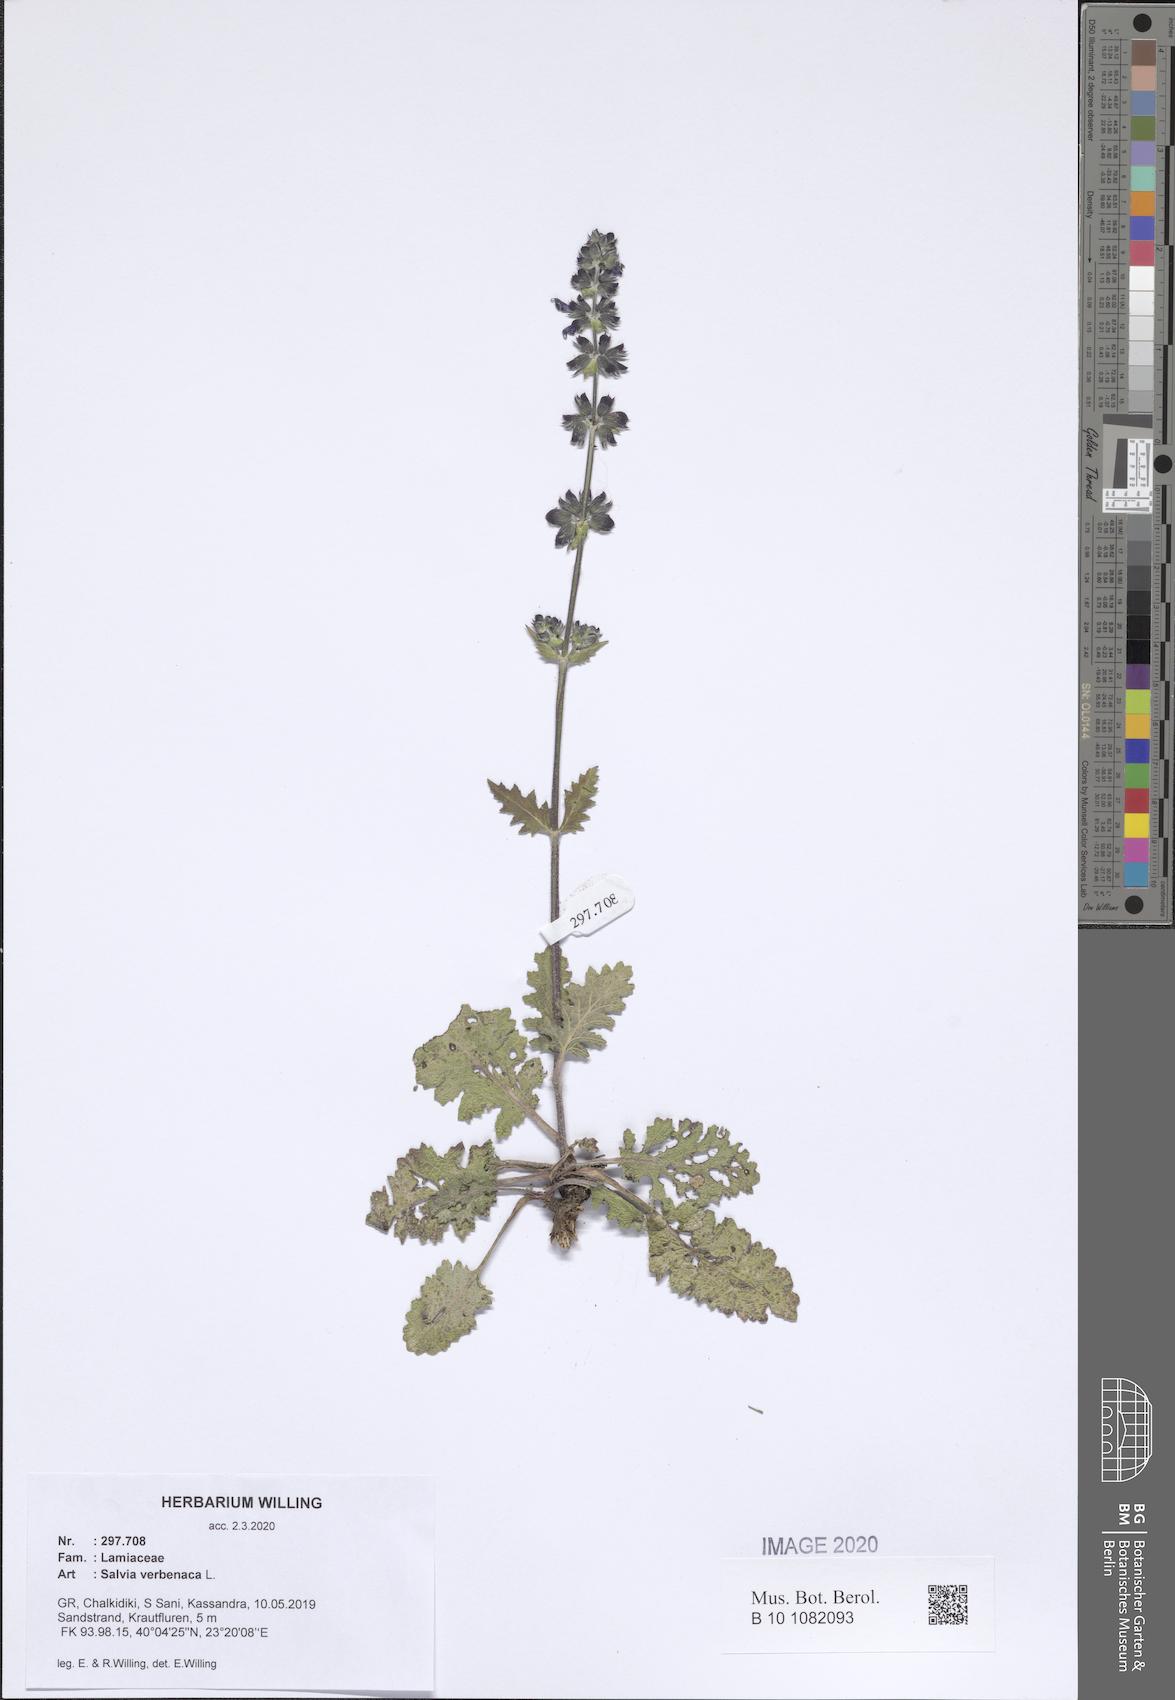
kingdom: Plantae
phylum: Tracheophyta
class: Magnoliopsida
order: Lamiales
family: Lamiaceae
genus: Salvia
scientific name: Salvia verbenaca
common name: Wild clary
